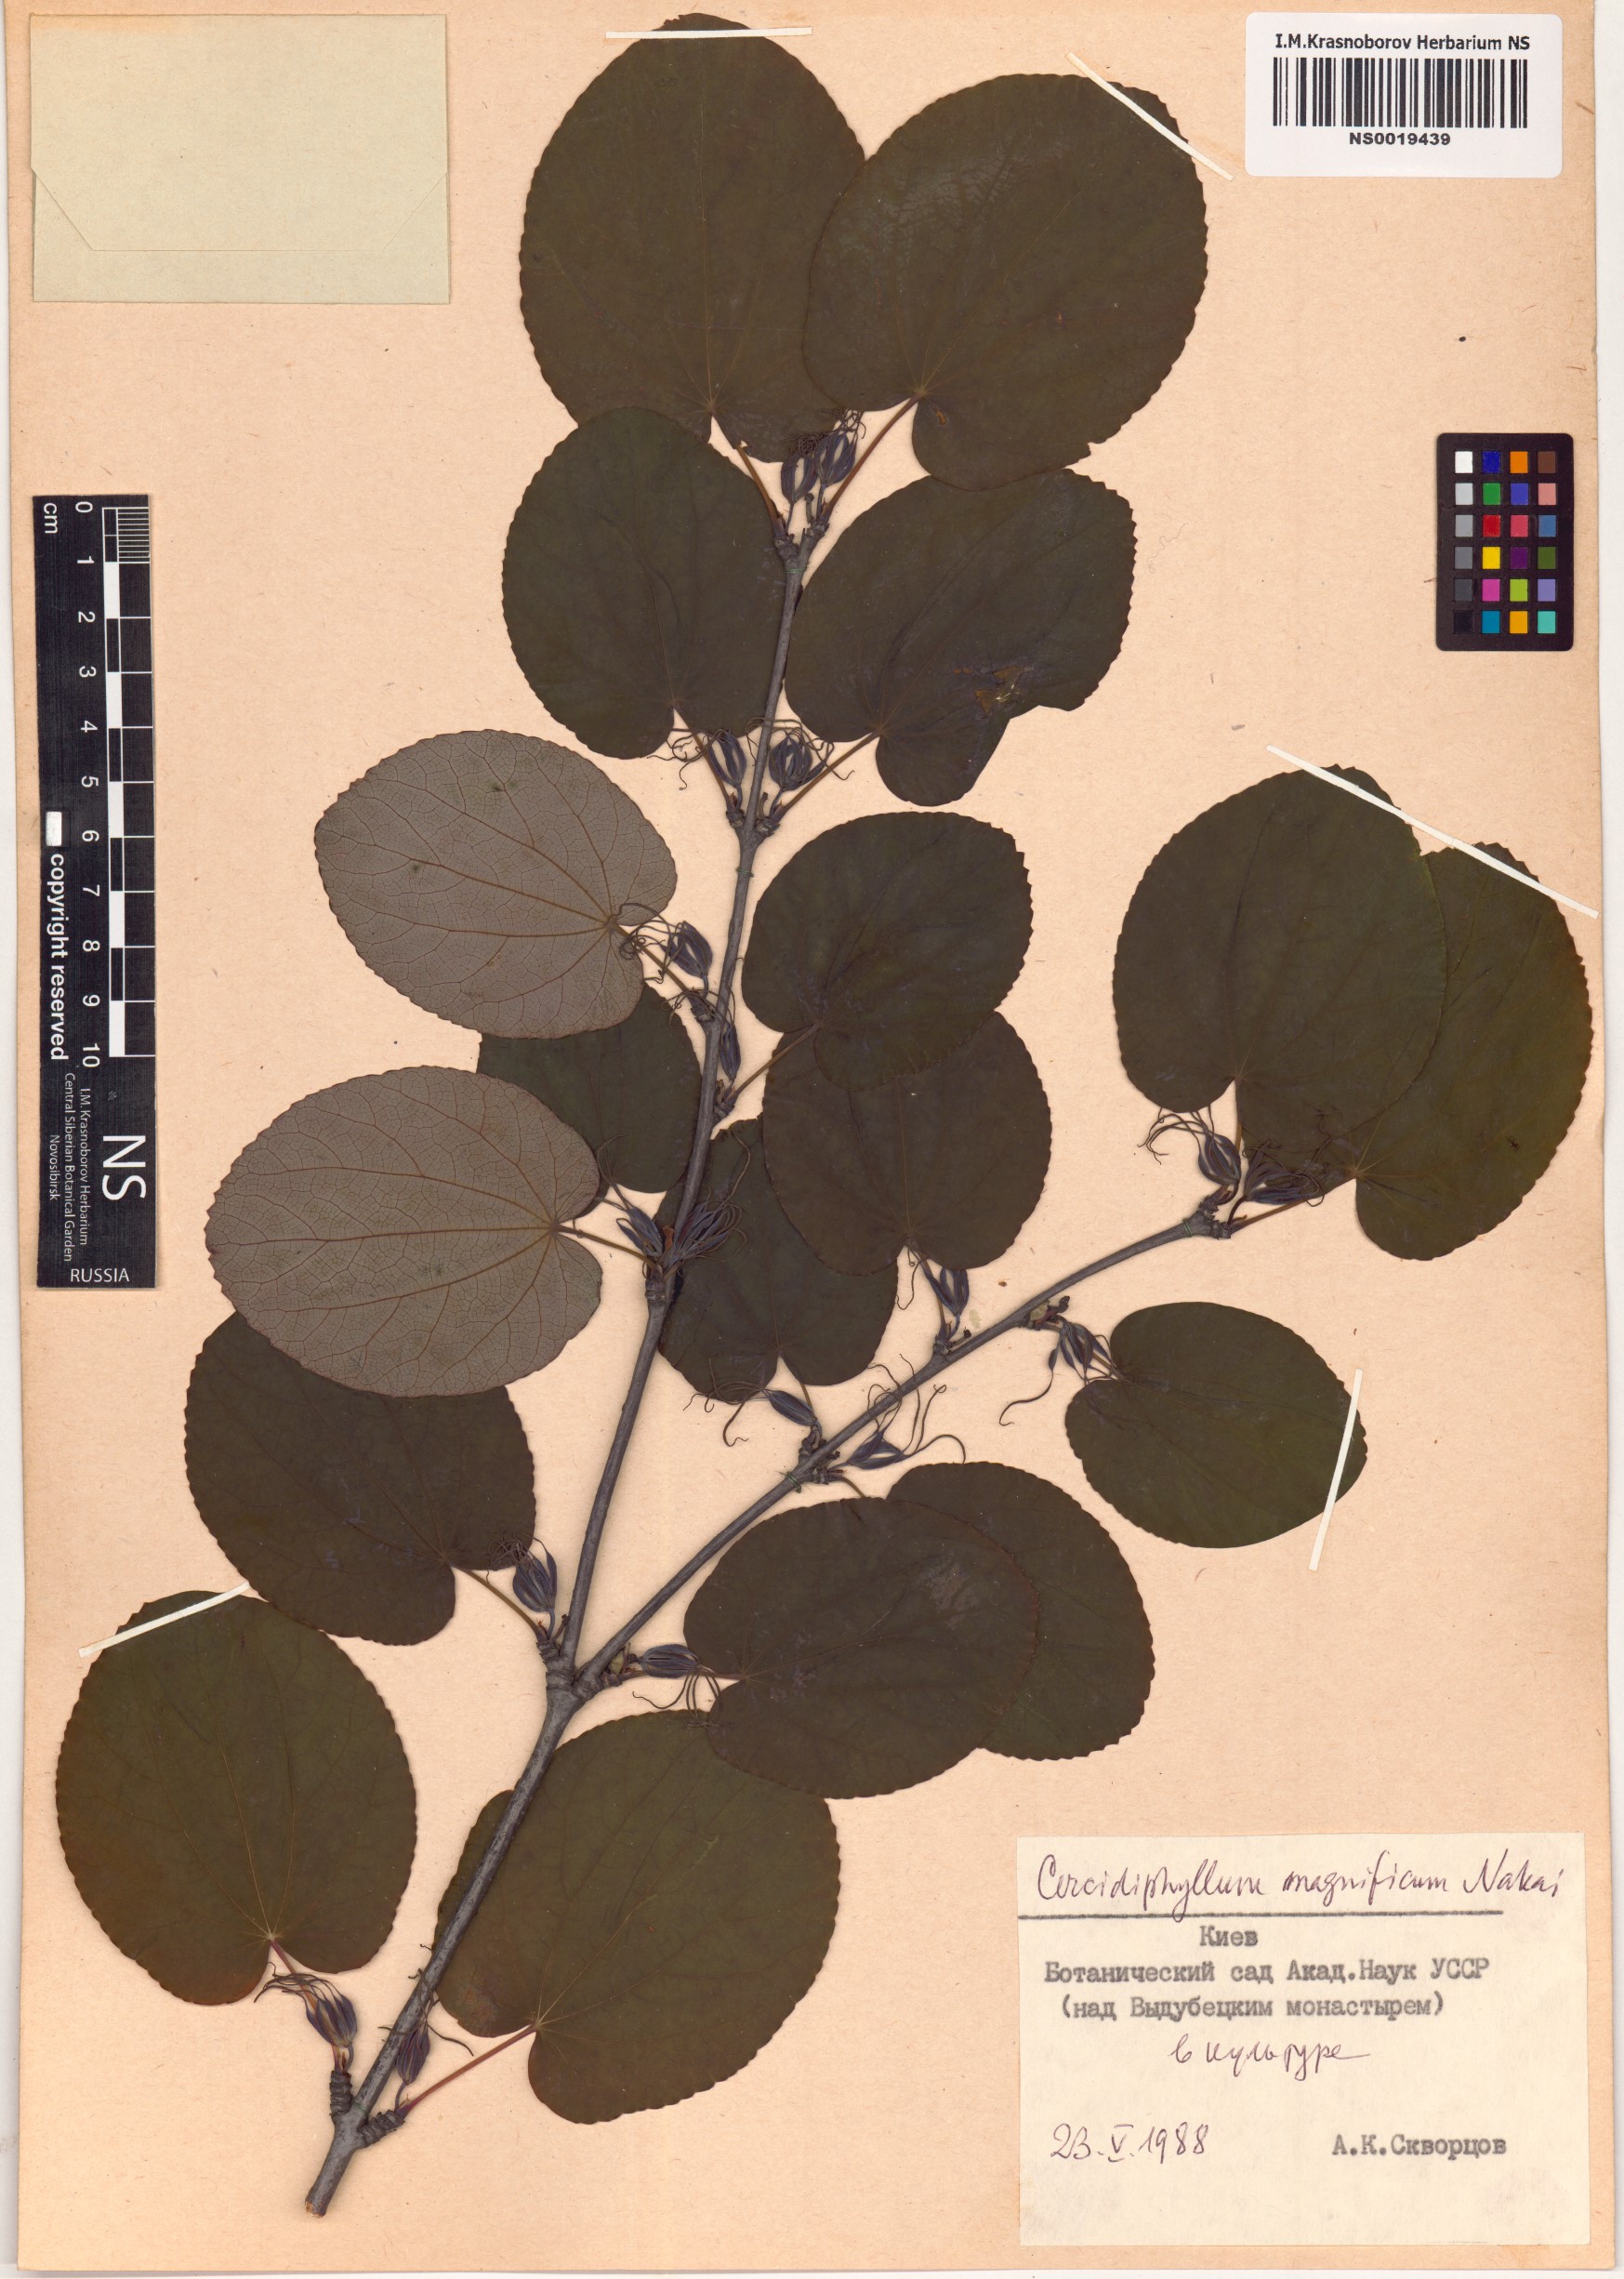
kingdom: Plantae
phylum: Tracheophyta
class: Magnoliopsida
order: Saxifragales
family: Cercidiphyllaceae
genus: Cercidiphyllum
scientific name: Cercidiphyllum magnificum
